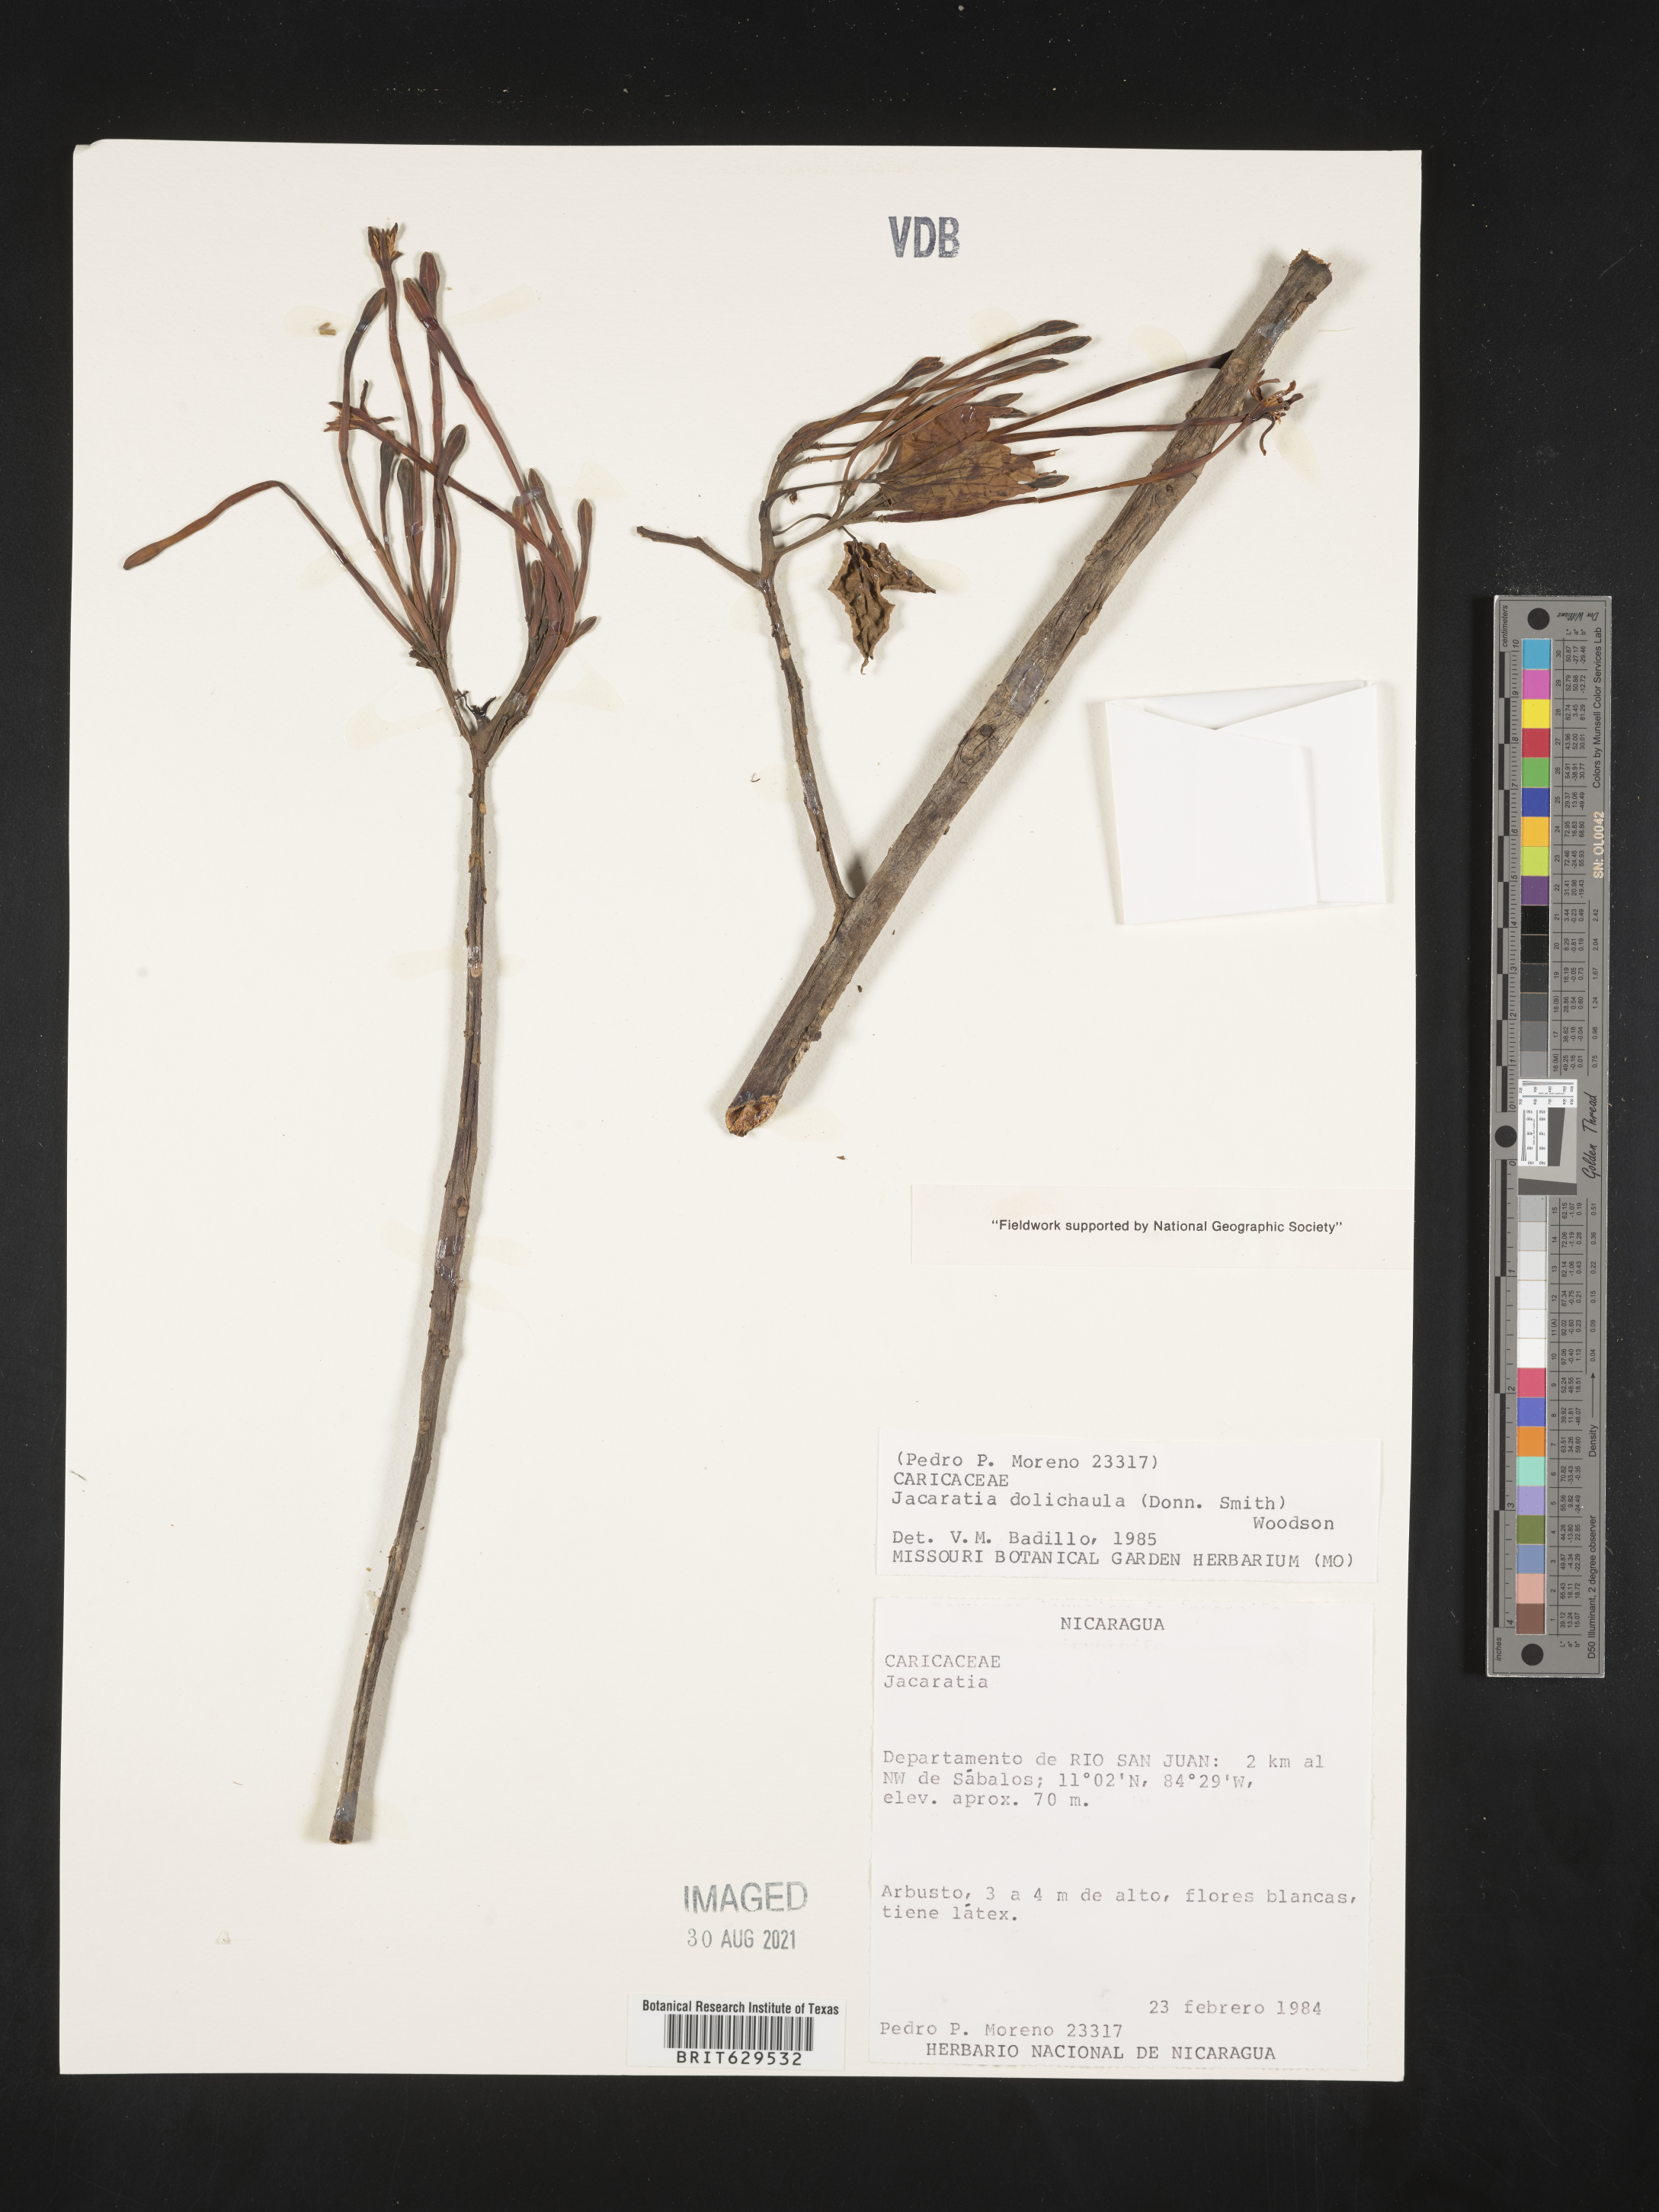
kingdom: Plantae
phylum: Tracheophyta
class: Magnoliopsida
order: Brassicales
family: Caricaceae
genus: Jacaratia
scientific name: Jacaratia dolichaula
